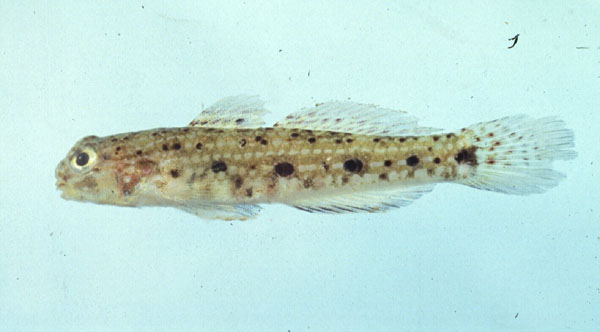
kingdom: Animalia
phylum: Chordata
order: Perciformes
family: Gobiidae
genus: Istigobius
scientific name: Istigobius nigroocellatus
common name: Black-spotted goby
